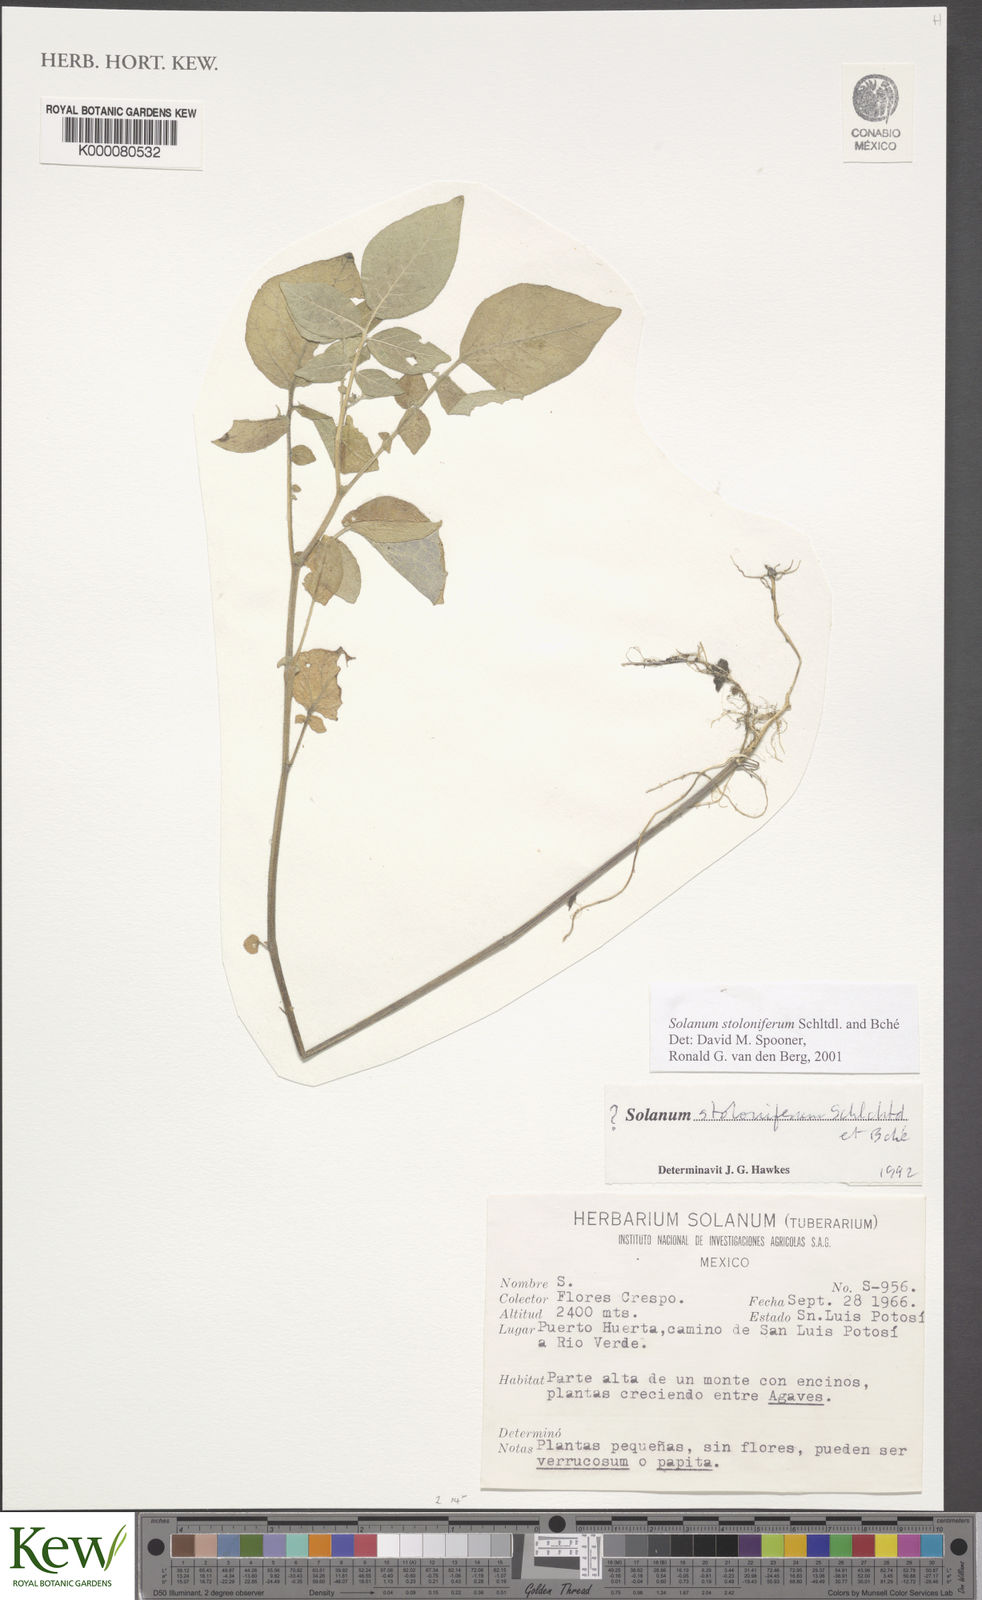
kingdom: Plantae
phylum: Tracheophyta
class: Magnoliopsida
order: Solanales
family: Solanaceae
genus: Solanum
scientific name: Solanum stoloniferum
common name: Fendler's nighshade
